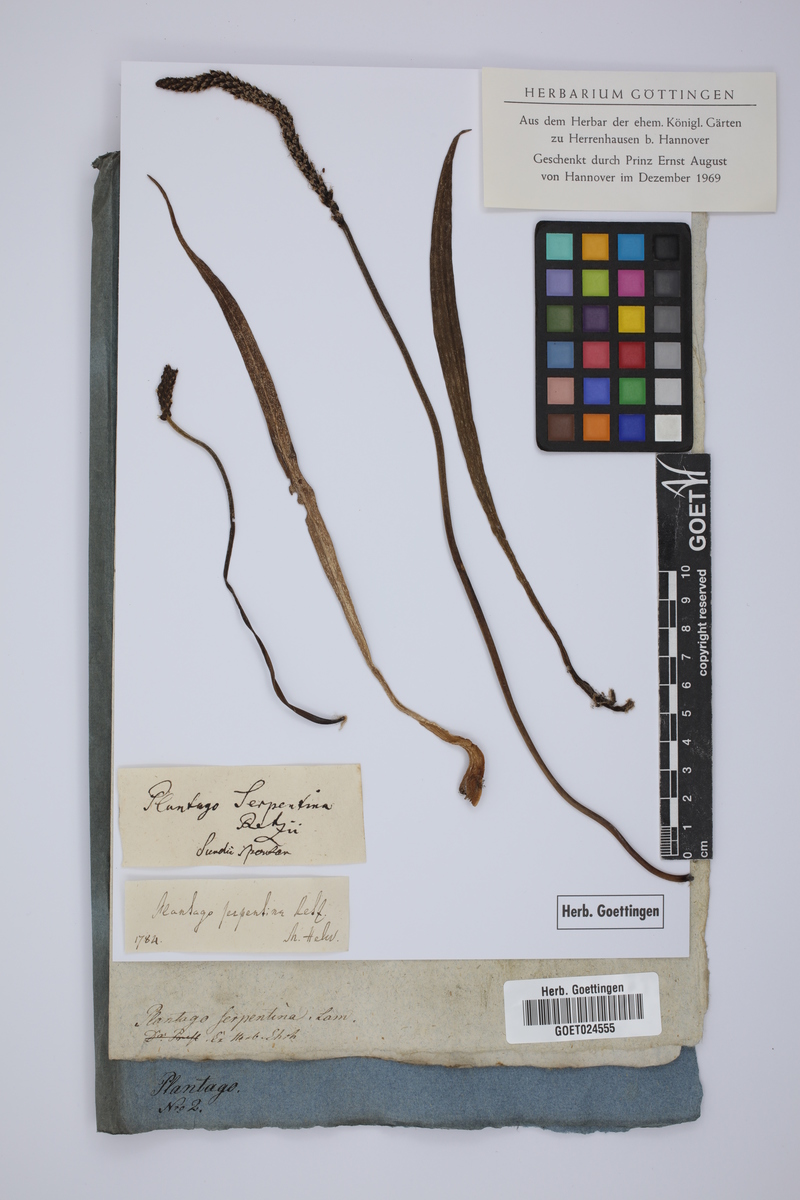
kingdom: Plantae
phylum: Tracheophyta
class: Magnoliopsida
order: Lamiales
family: Plantaginaceae
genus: Plantago
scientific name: Plantago maritima
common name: Sea plantain
